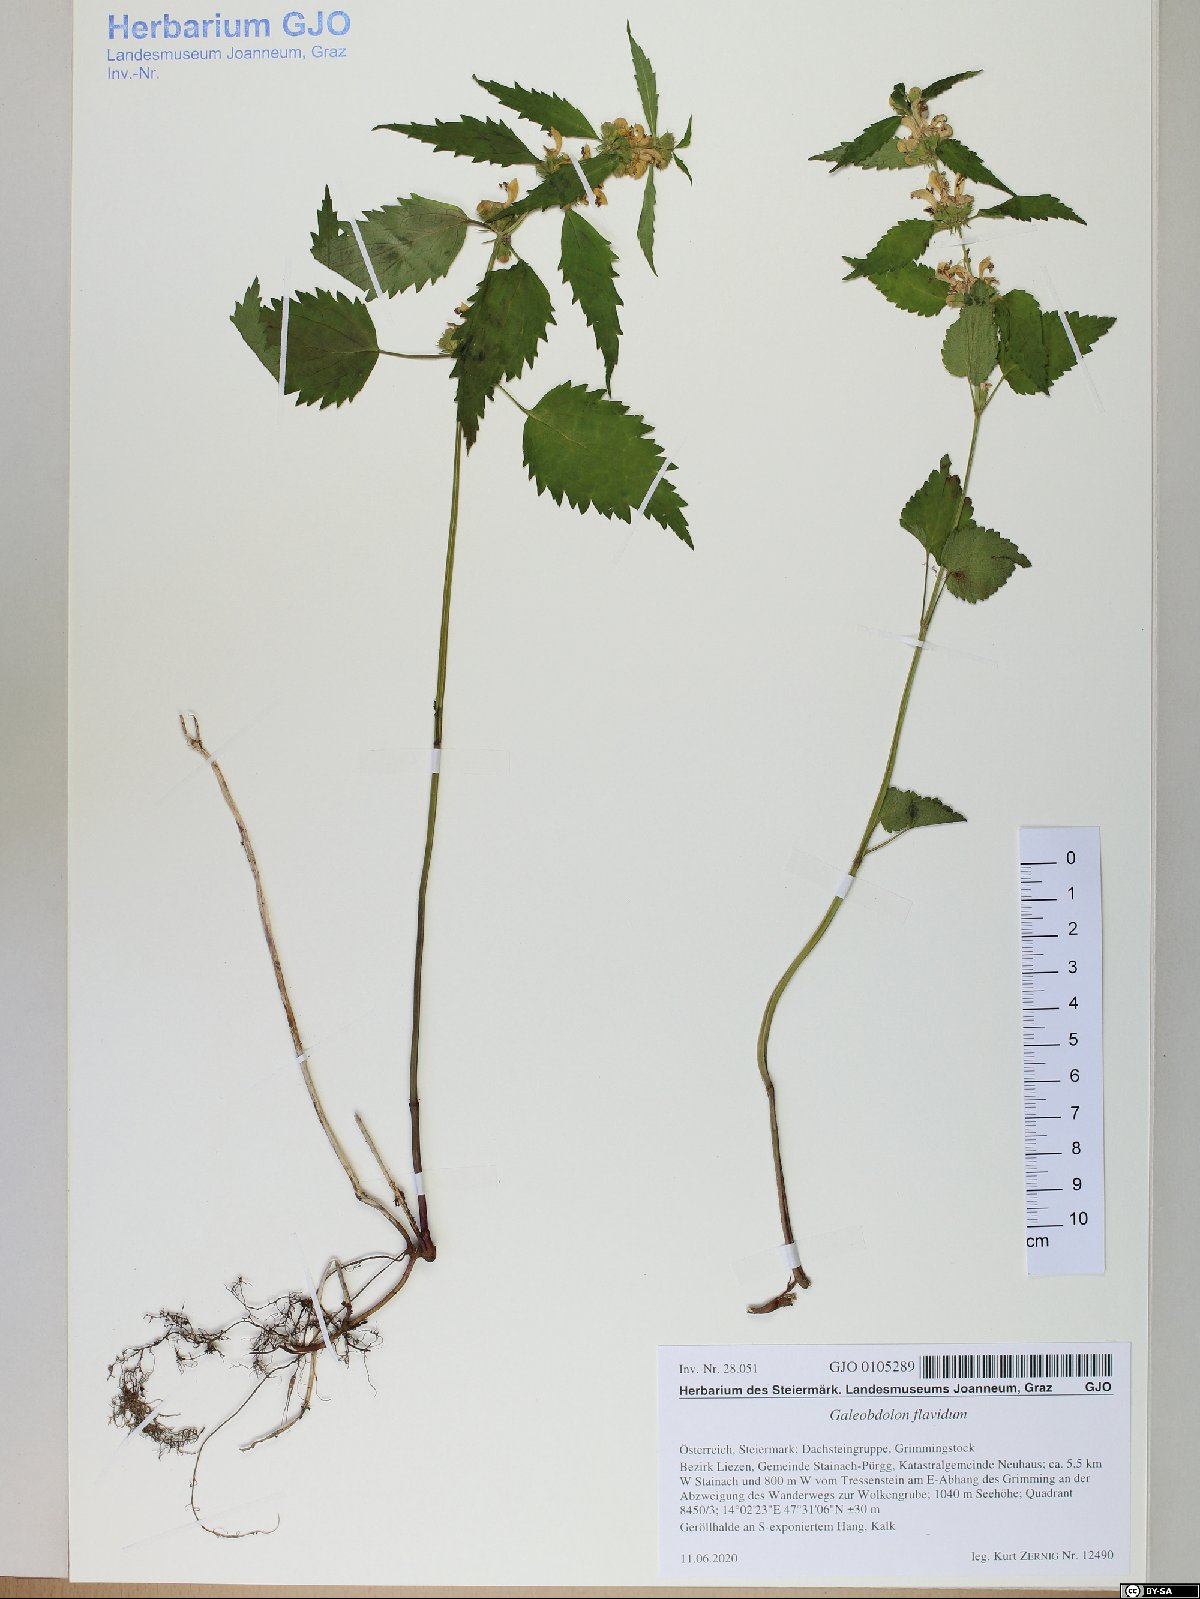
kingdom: Plantae
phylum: Tracheophyta
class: Magnoliopsida
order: Lamiales
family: Lamiaceae
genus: Lamium
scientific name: Lamium galeobdolon
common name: Yellow archangel
